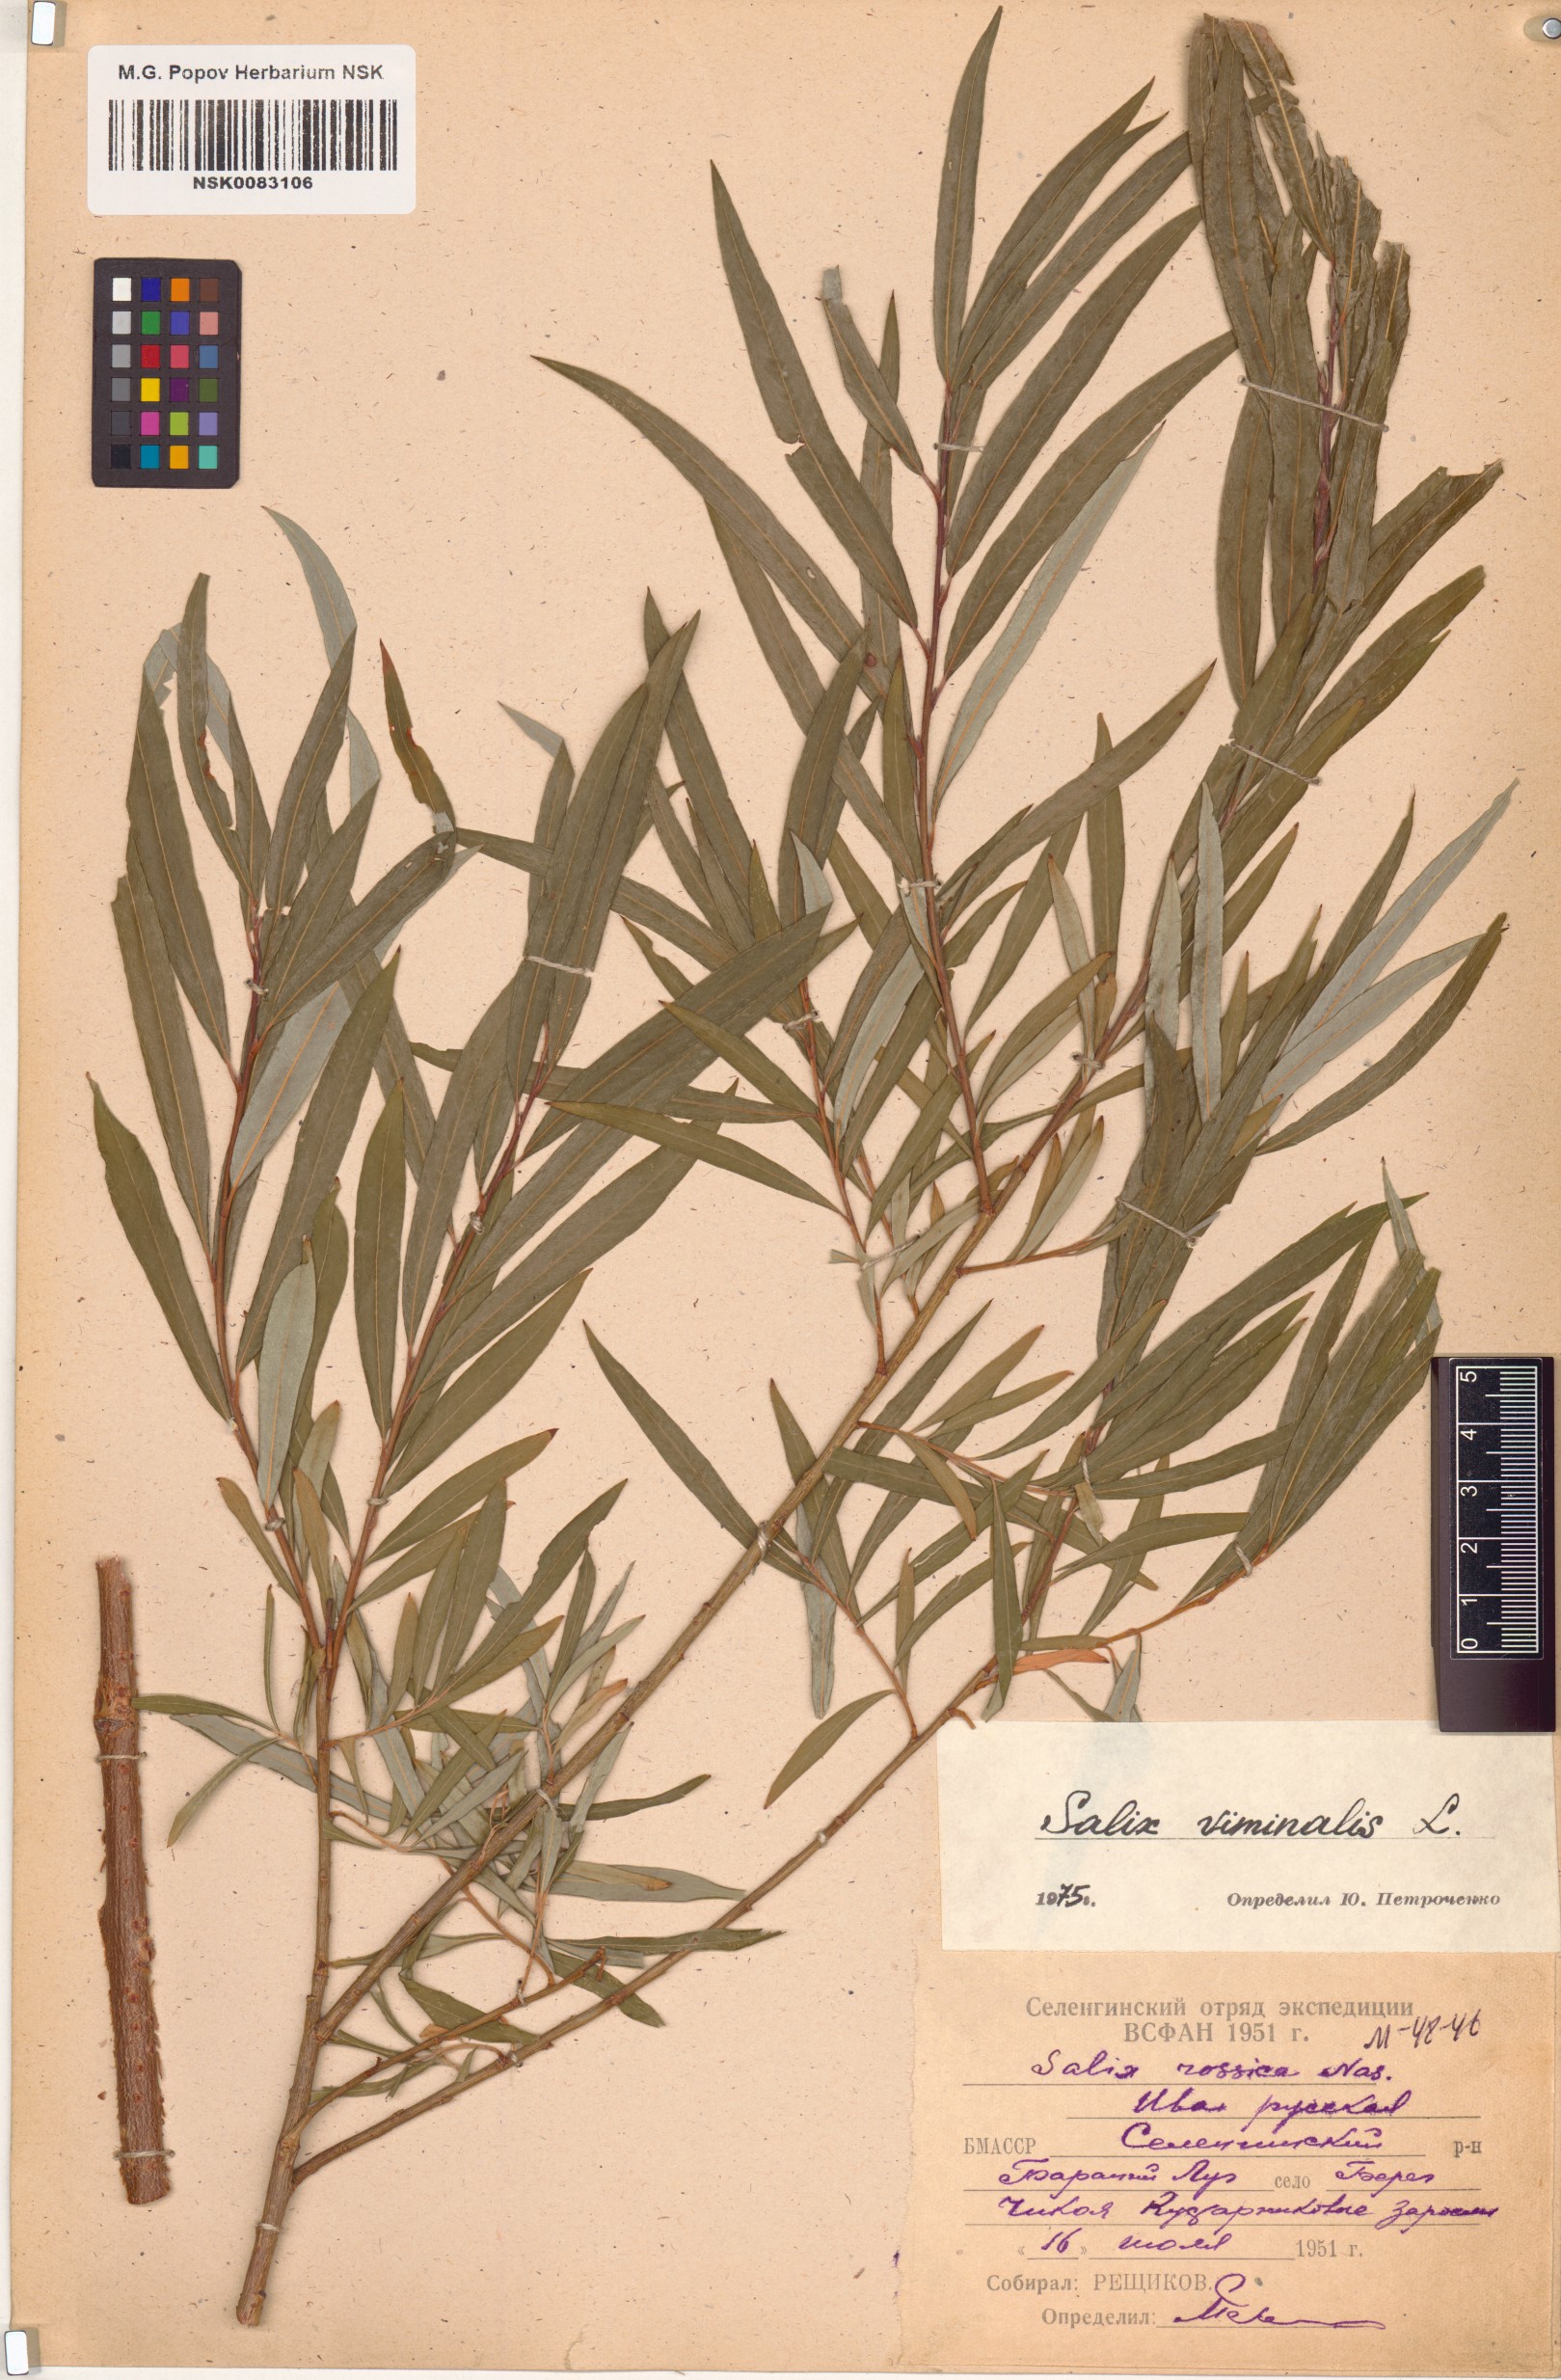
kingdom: Plantae
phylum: Tracheophyta
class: Magnoliopsida
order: Malpighiales
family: Salicaceae
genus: Salix
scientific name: Salix viminalis
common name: Osier
